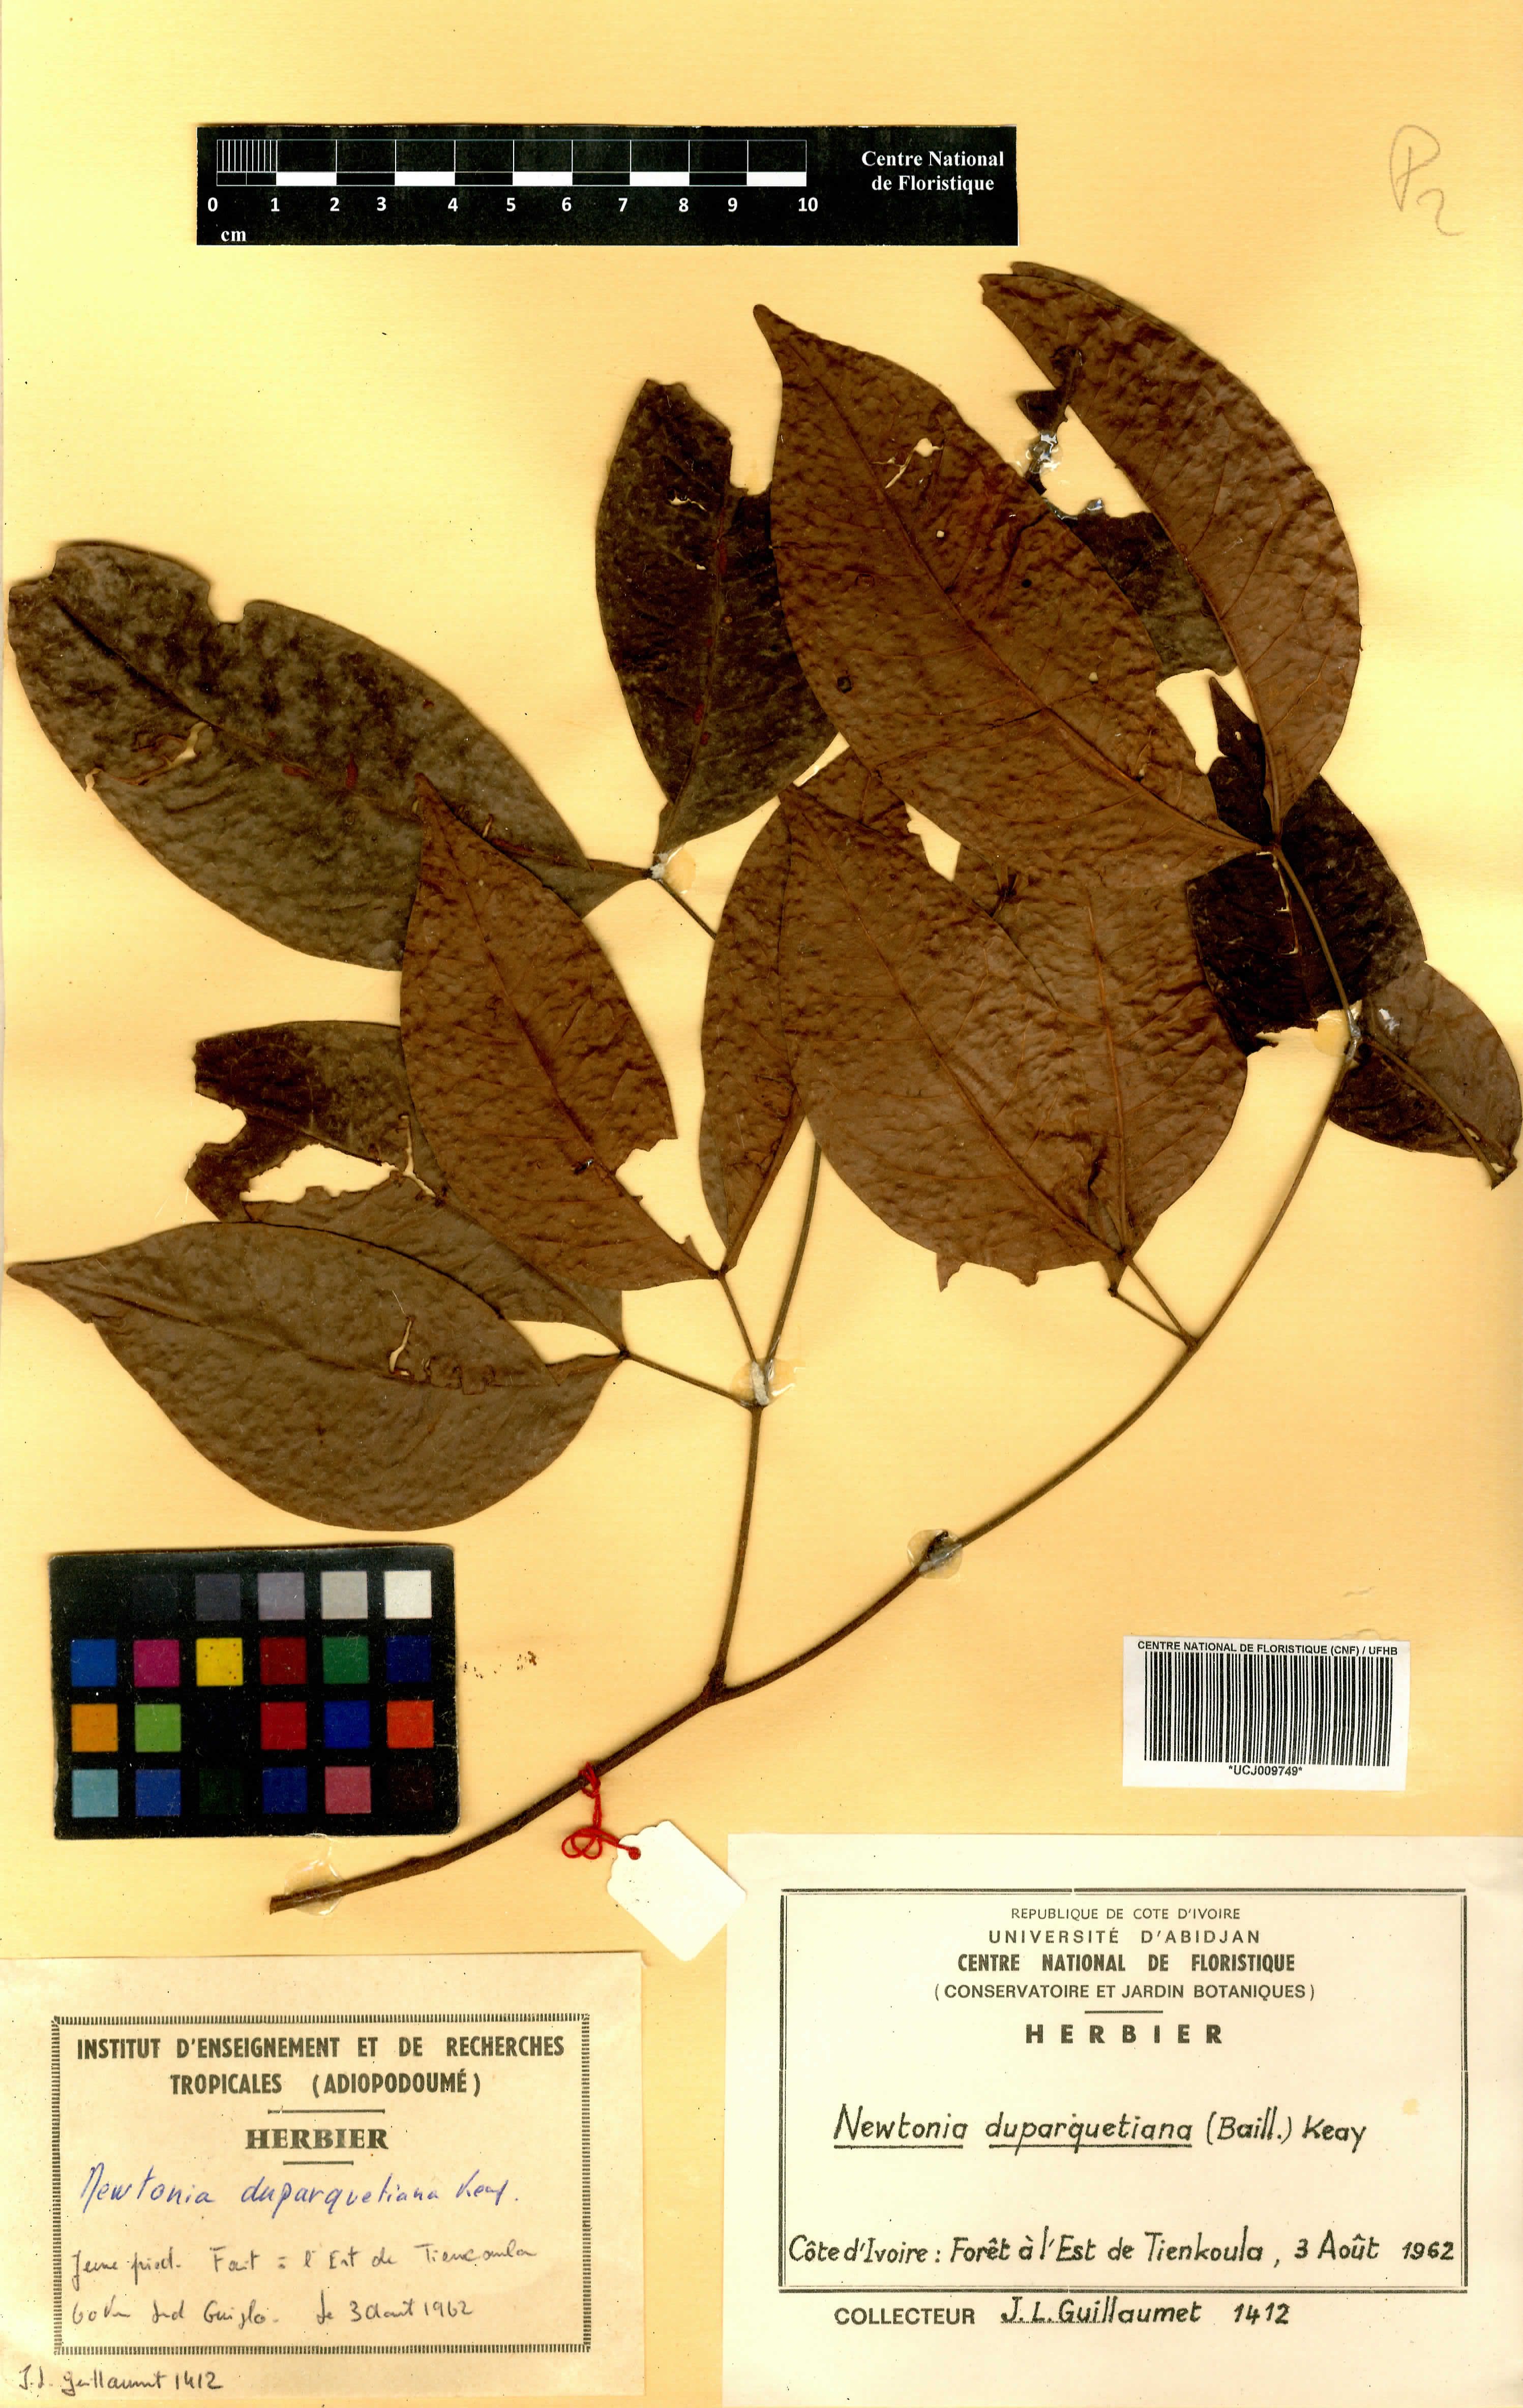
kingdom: Plantae
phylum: Tracheophyta
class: Magnoliopsida
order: Fabales
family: Fabaceae
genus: Newtonia
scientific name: Newtonia duparquetiana
